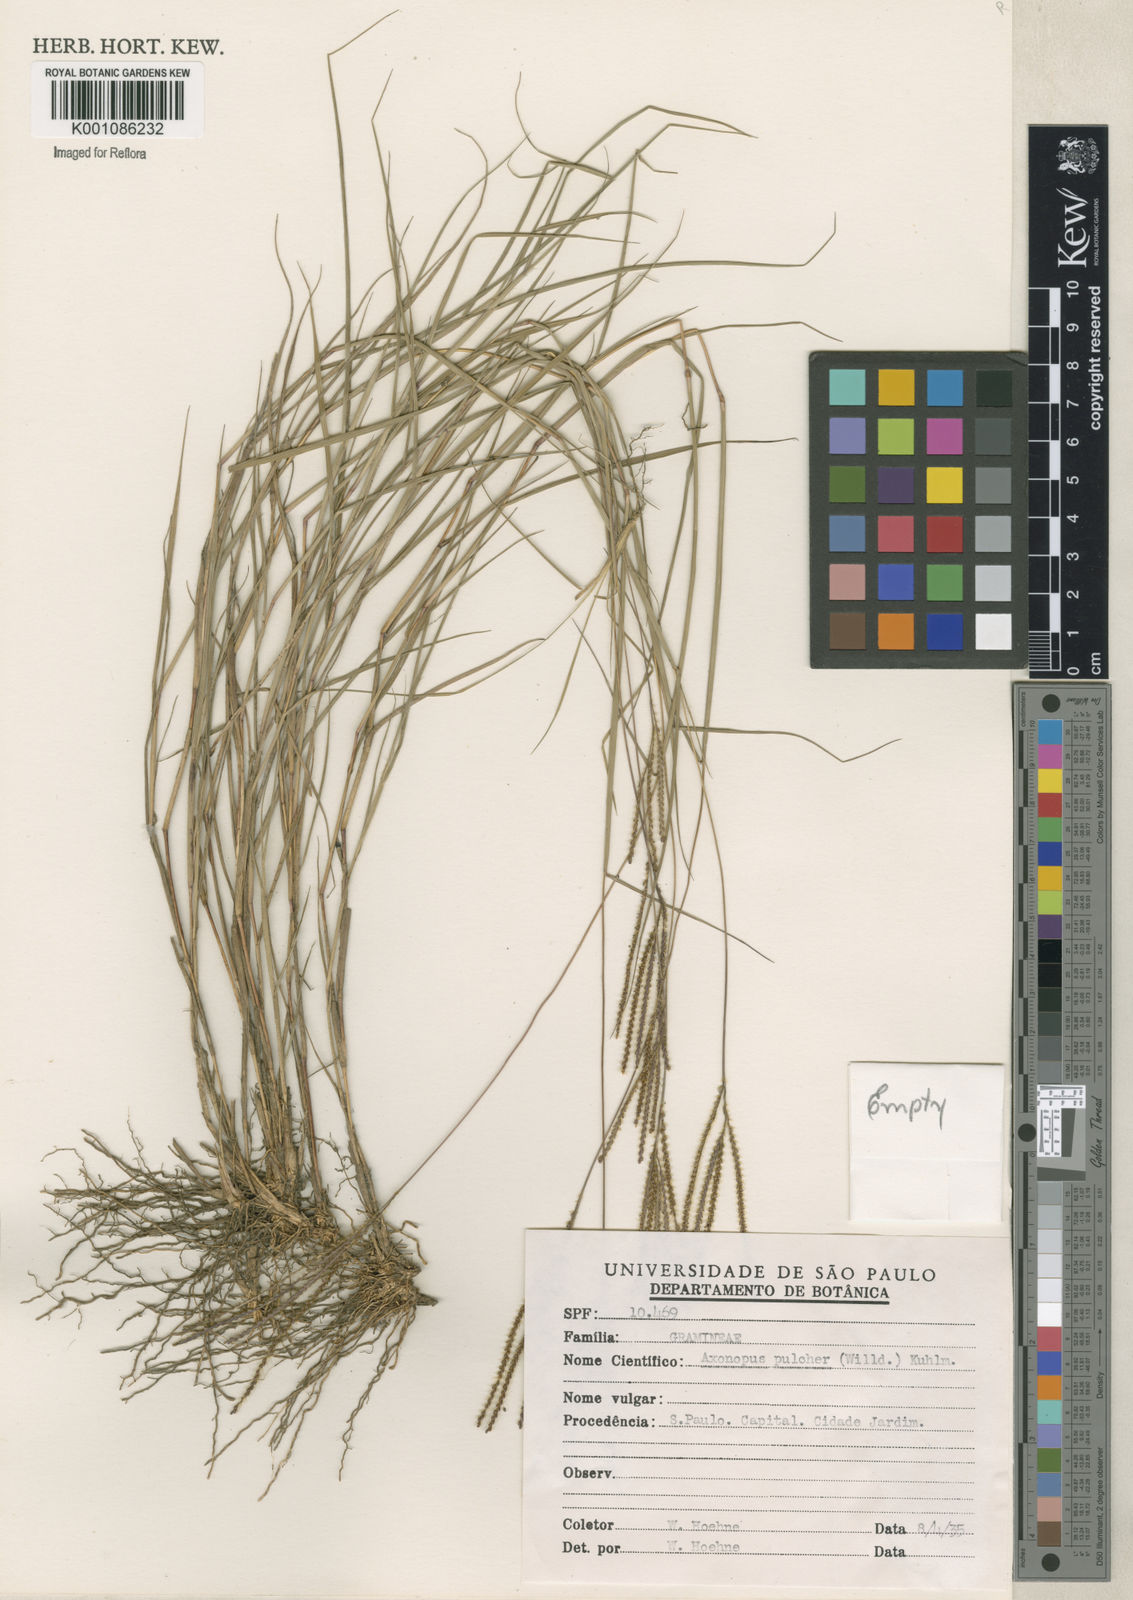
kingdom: Plantae
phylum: Tracheophyta
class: Liliopsida
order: Poales
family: Poaceae
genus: Axonopus
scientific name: Axonopus aureus
